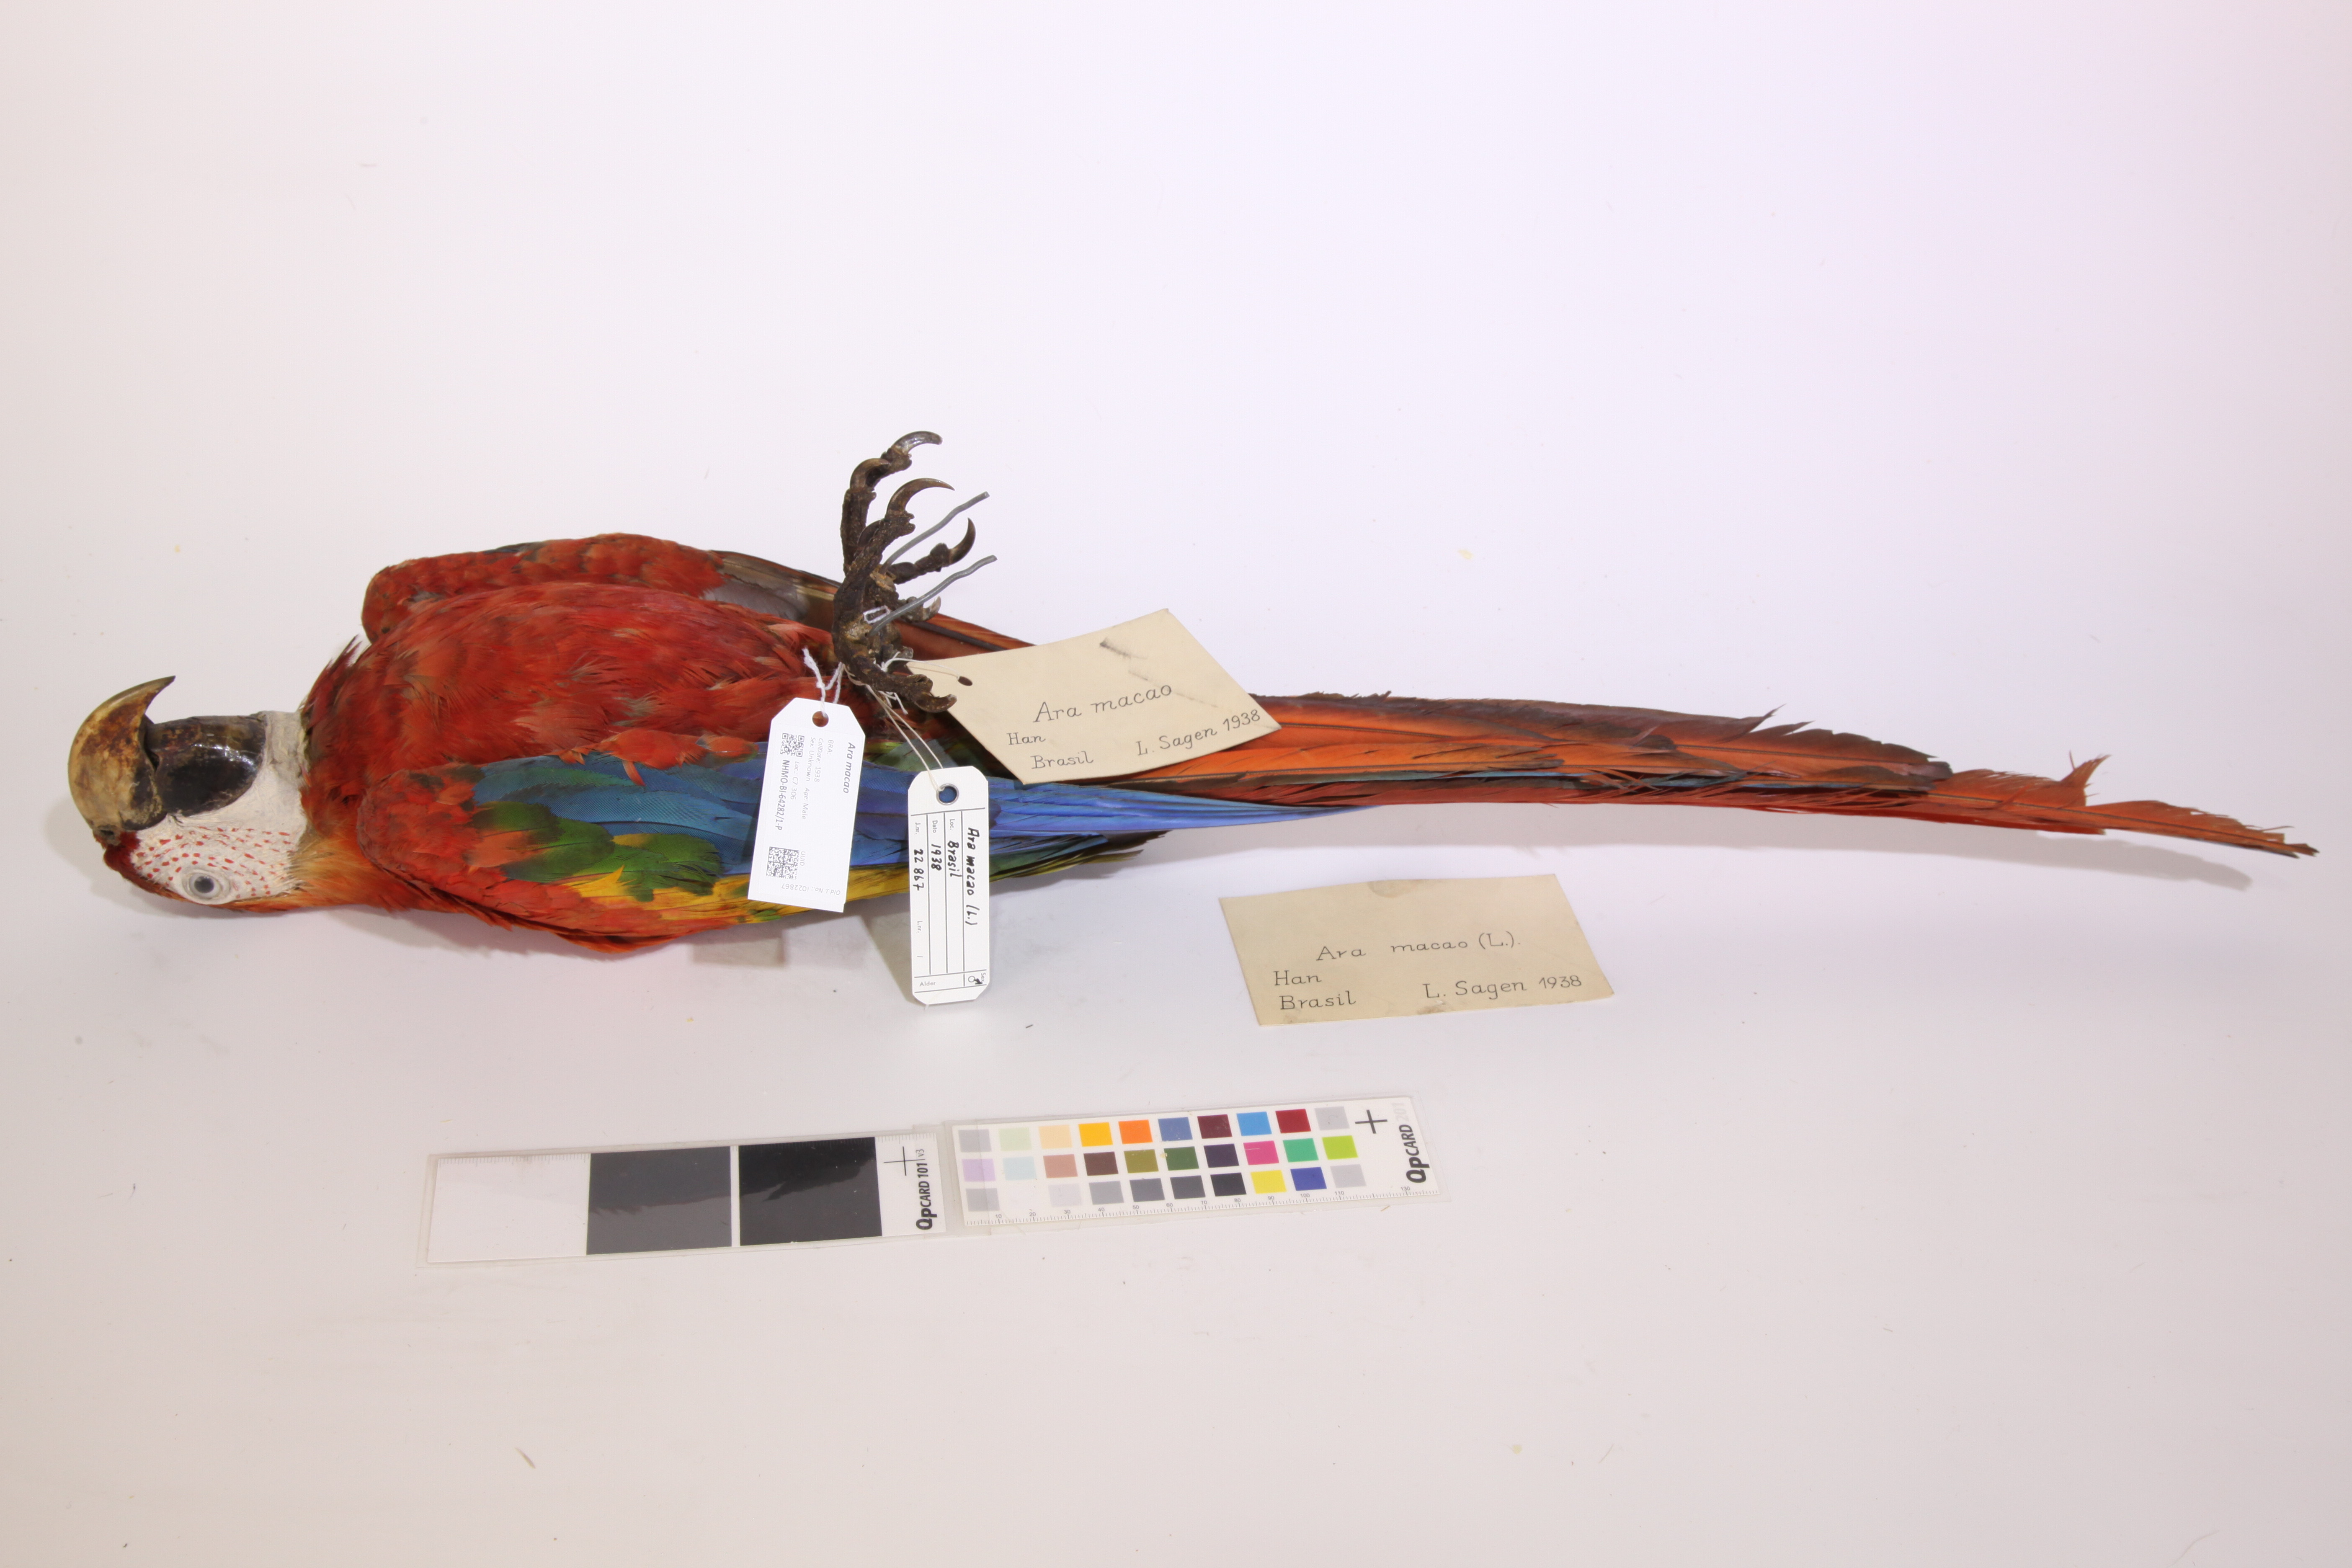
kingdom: Animalia
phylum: Chordata
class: Aves
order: Psittaciformes
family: Psittacidae
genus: Ara
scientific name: Ara macao
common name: Scarlet macaw
